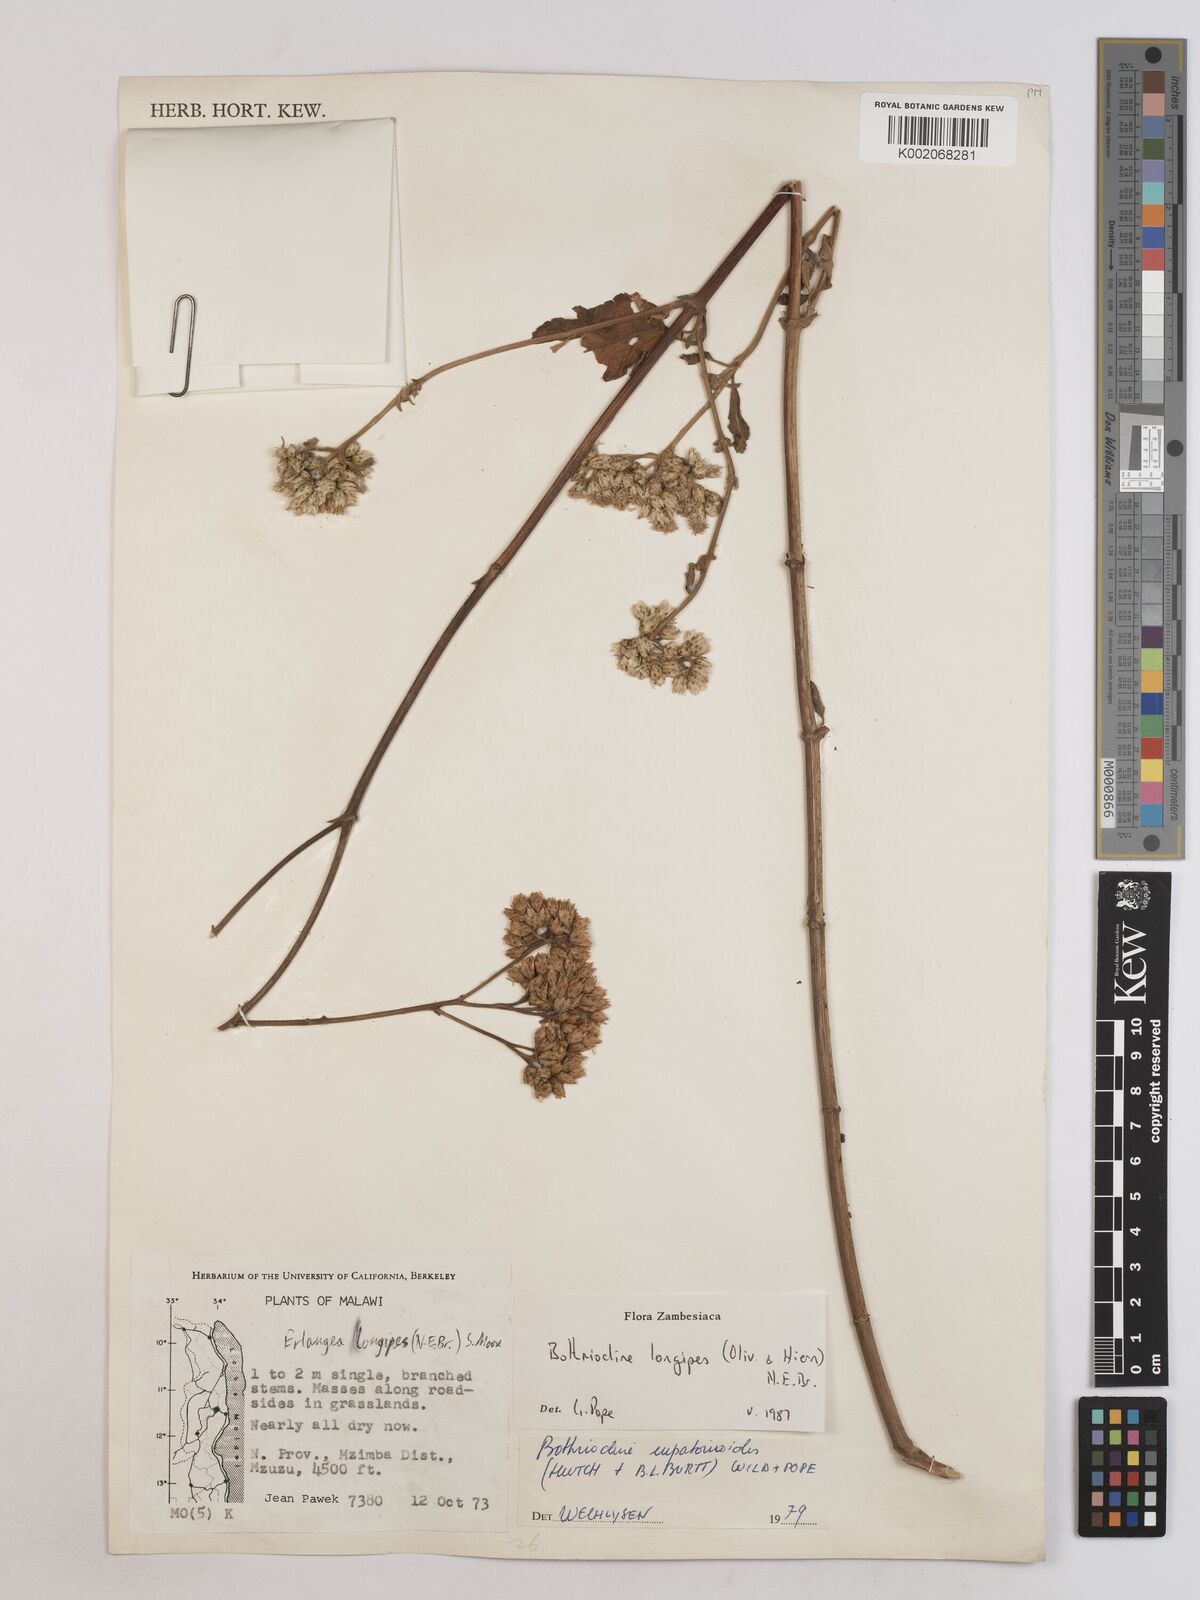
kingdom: Plantae
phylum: Tracheophyta
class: Magnoliopsida
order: Asterales
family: Asteraceae
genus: Bothriocline
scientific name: Bothriocline longipes
